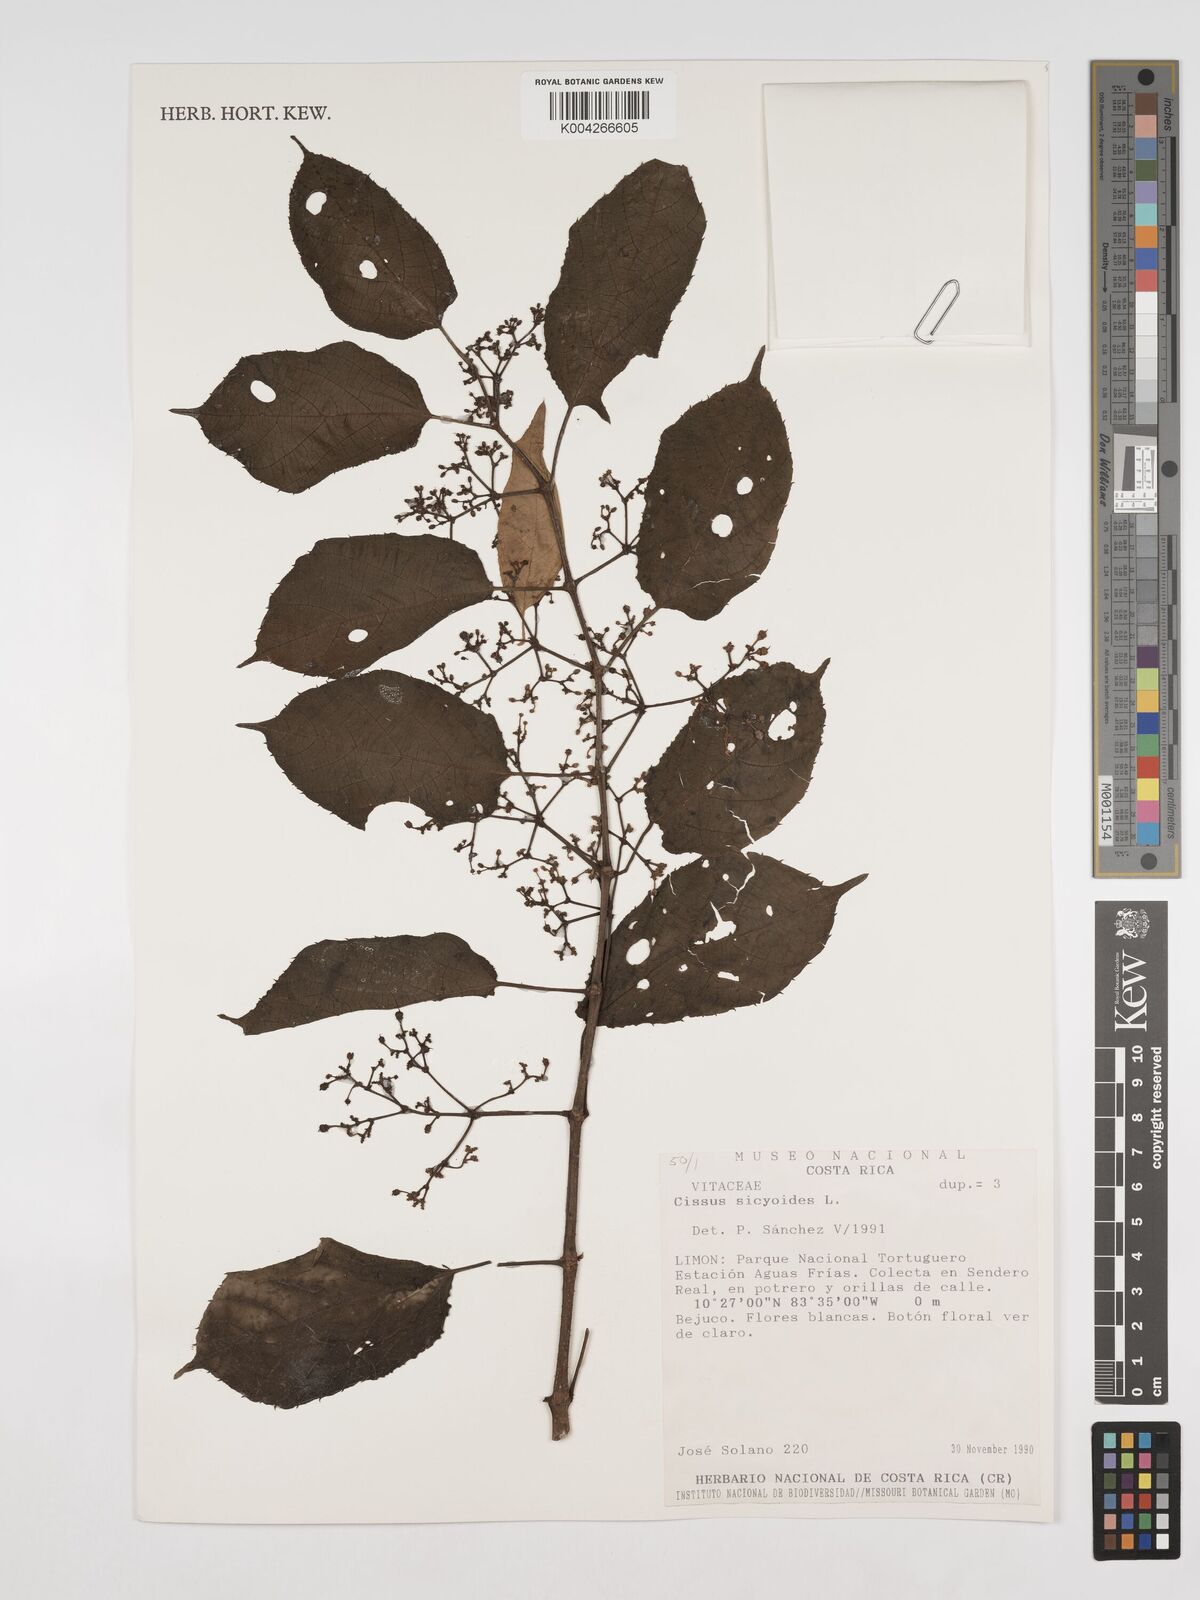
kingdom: Plantae
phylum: Tracheophyta
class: Magnoliopsida
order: Vitales
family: Vitaceae
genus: Cissus
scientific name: Cissus
